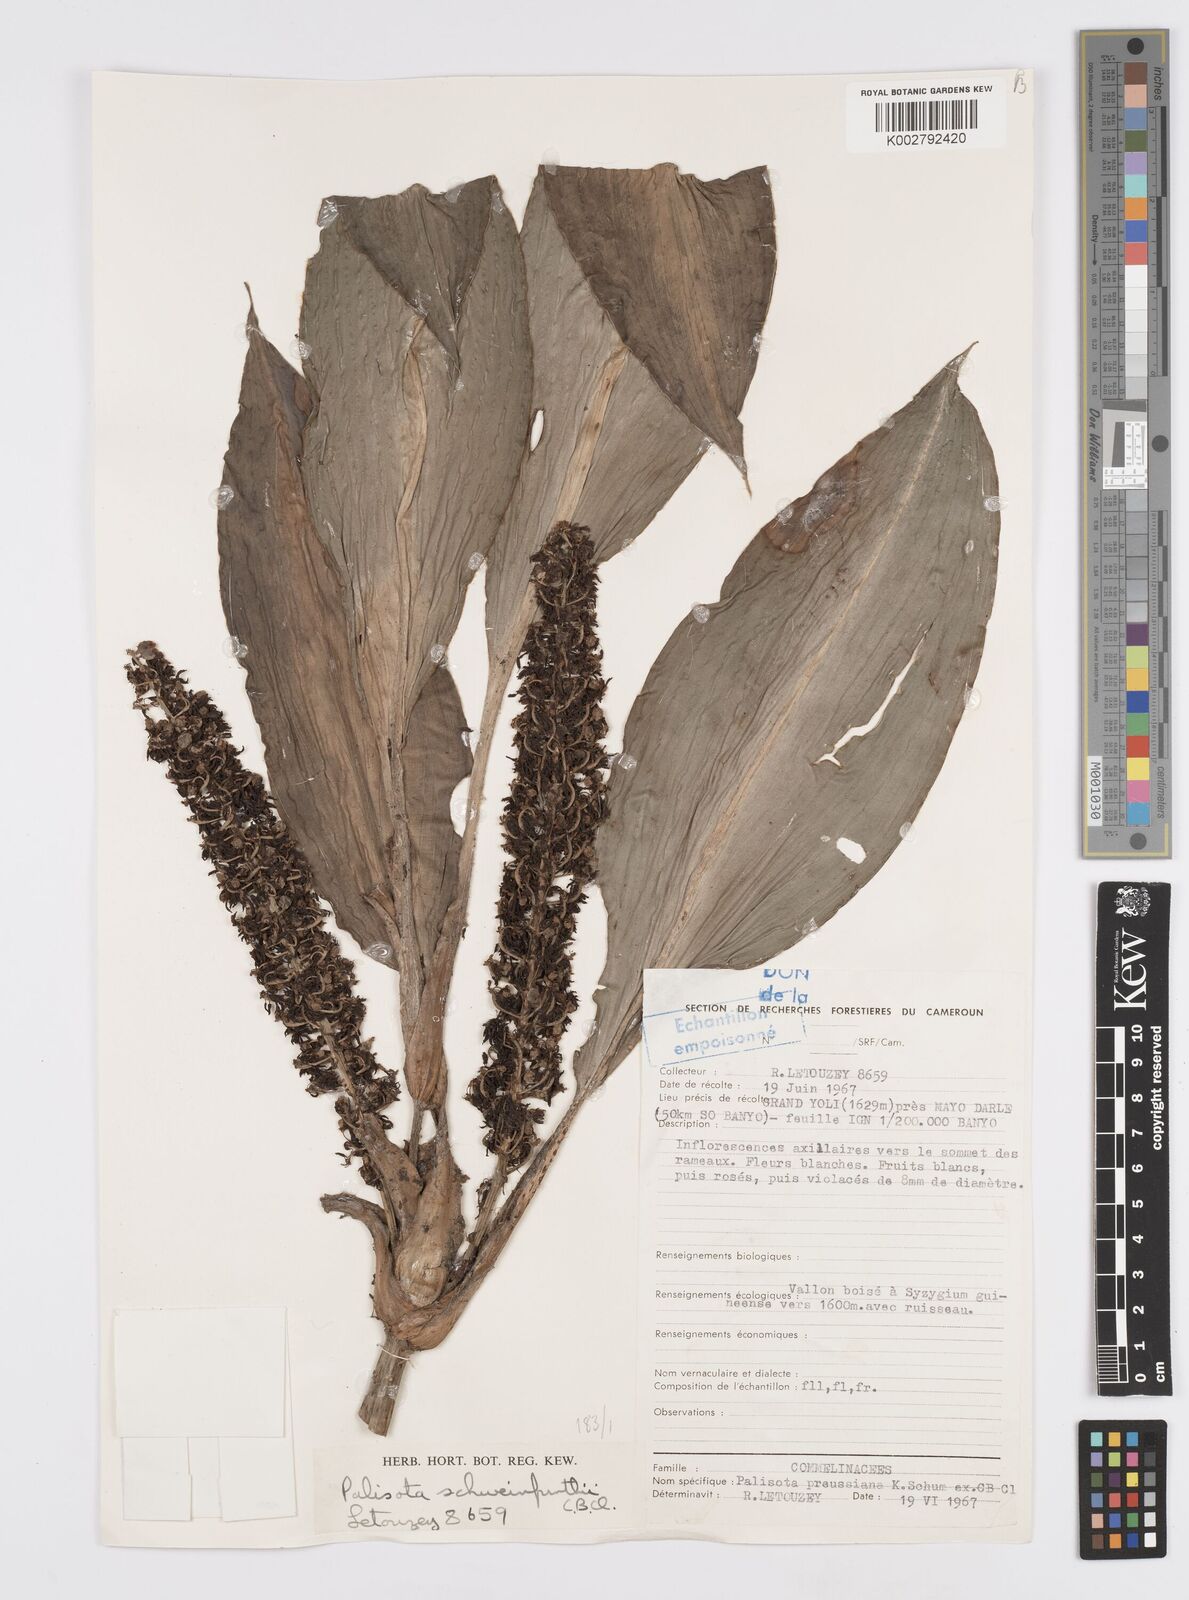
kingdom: Plantae
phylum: Tracheophyta
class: Liliopsida
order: Commelinales
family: Commelinaceae
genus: Palisota
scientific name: Palisota schweinfurthii
